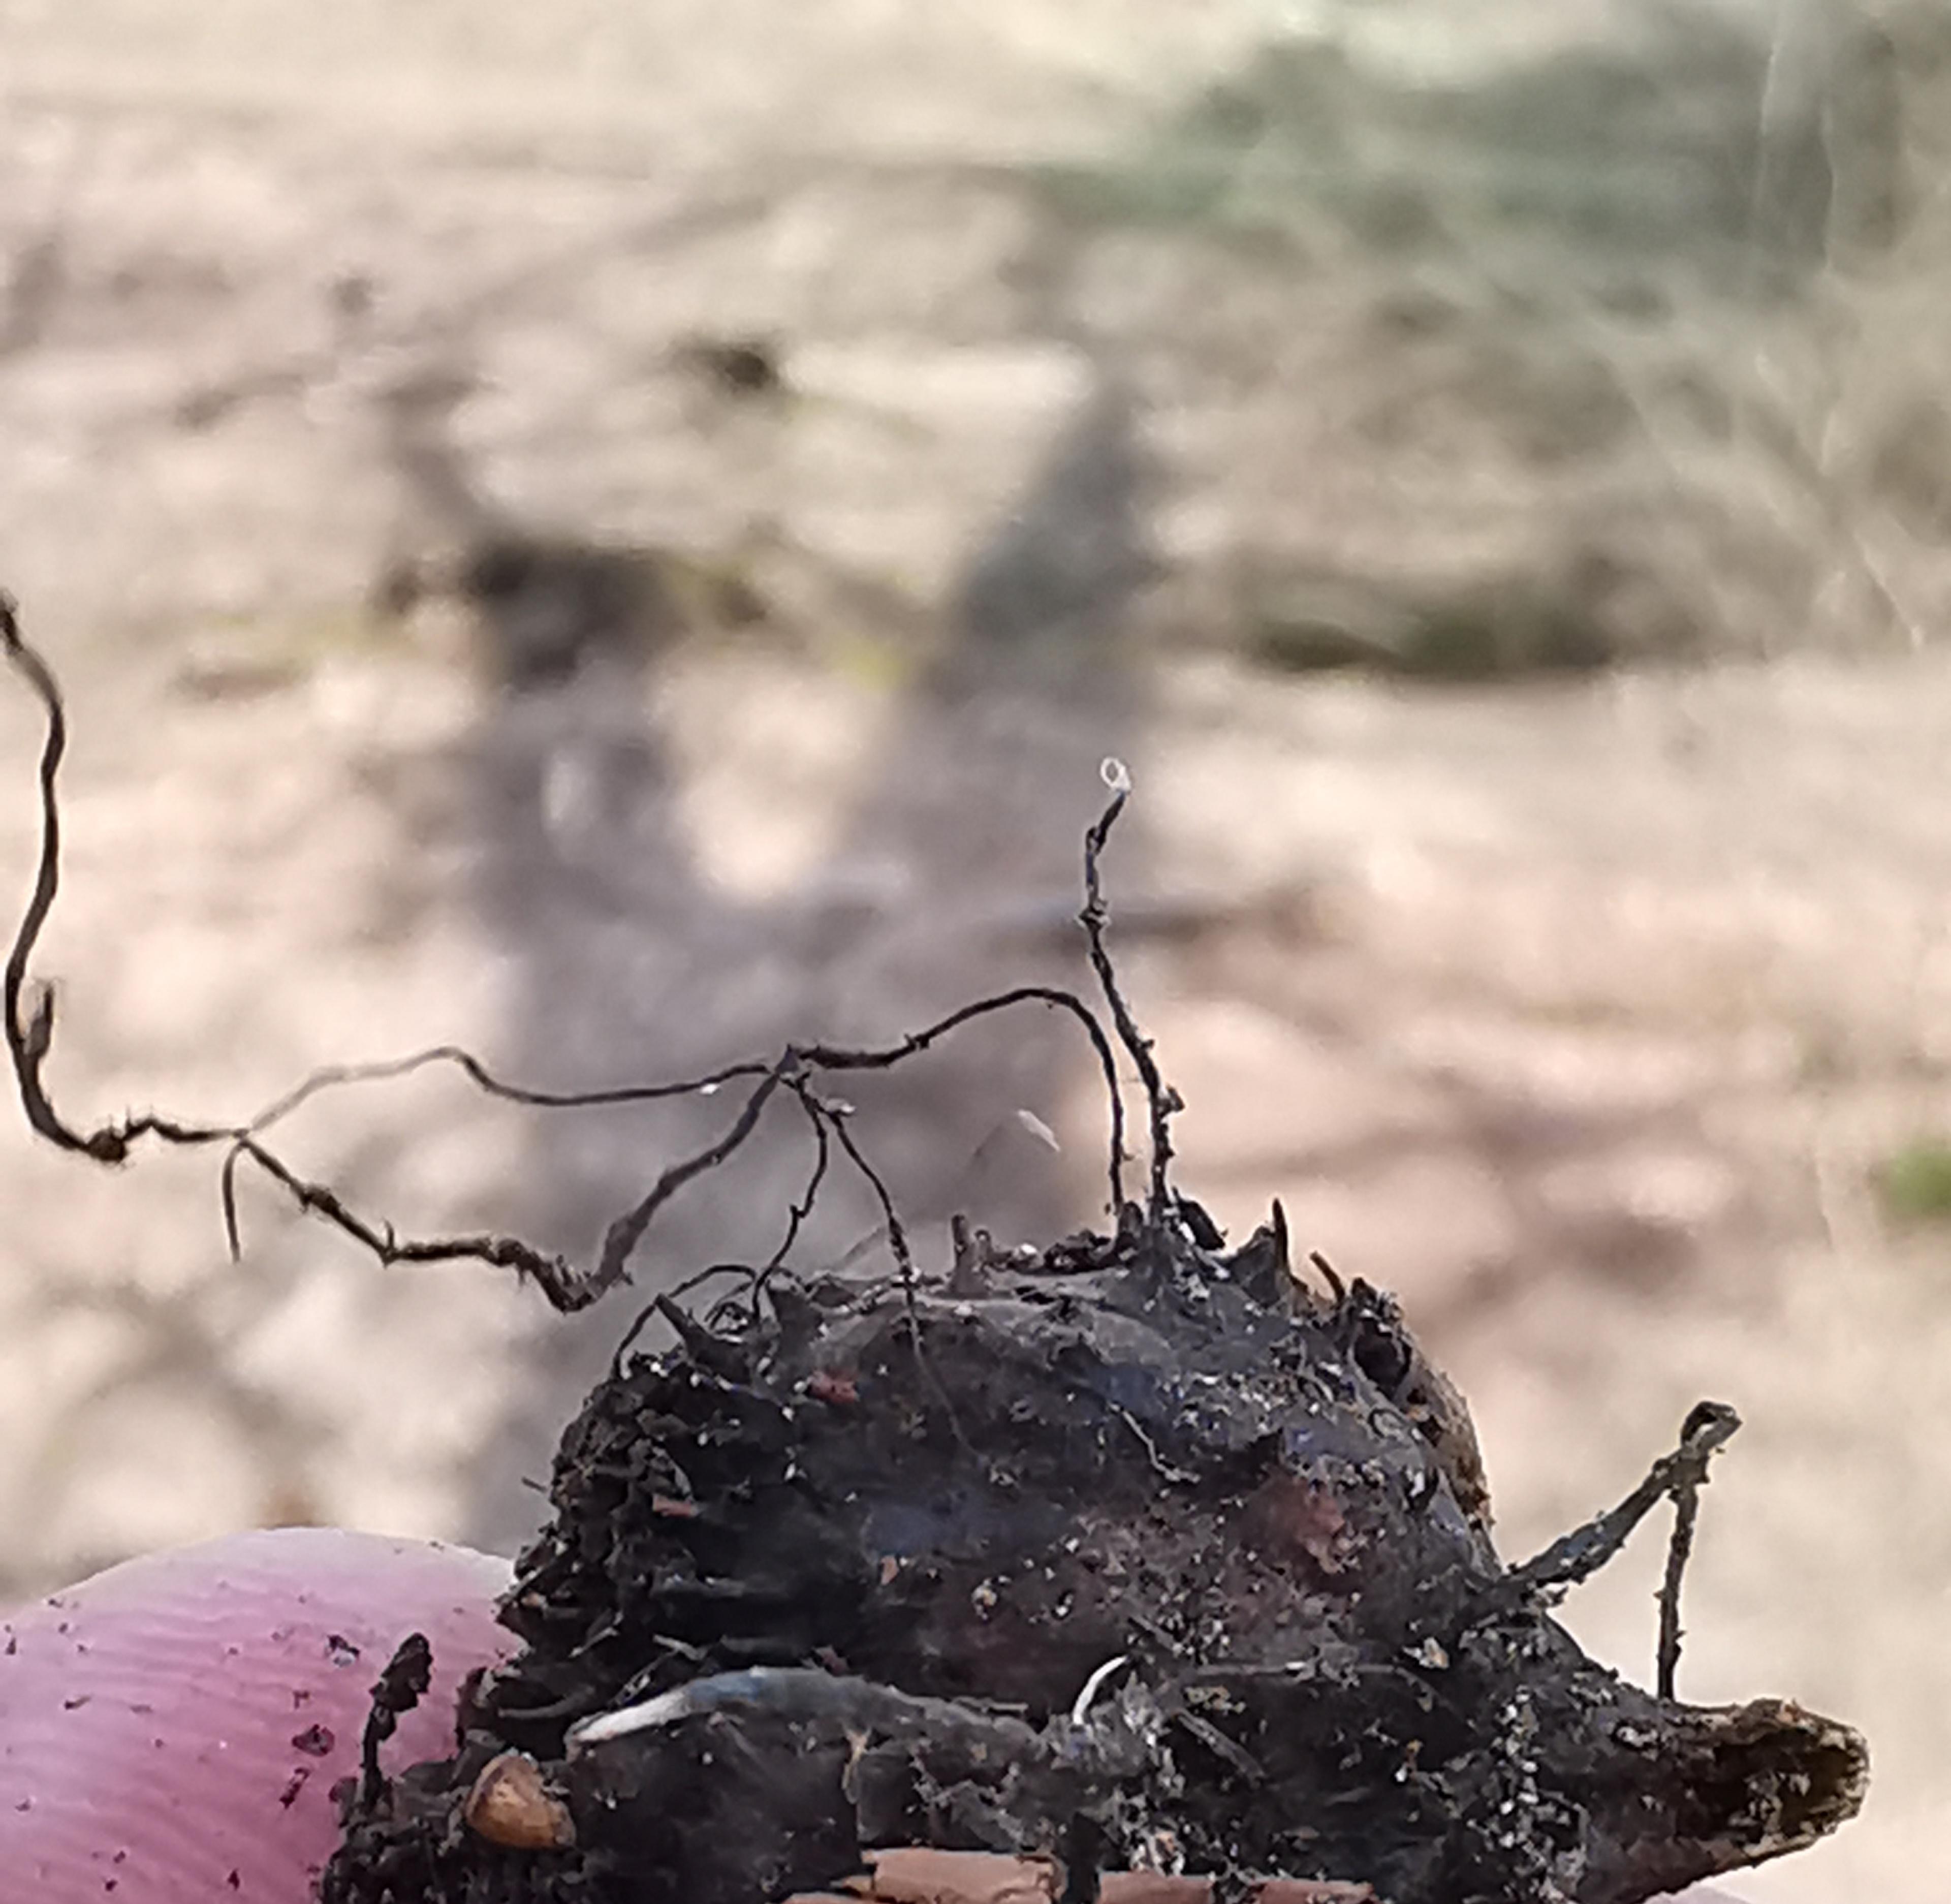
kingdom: Fungi
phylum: Ascomycota
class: Sordariomycetes
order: Xylariales
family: Xylariaceae
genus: Xylaria
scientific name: Xylaria carpophila
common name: bogskål-stødsvamp
